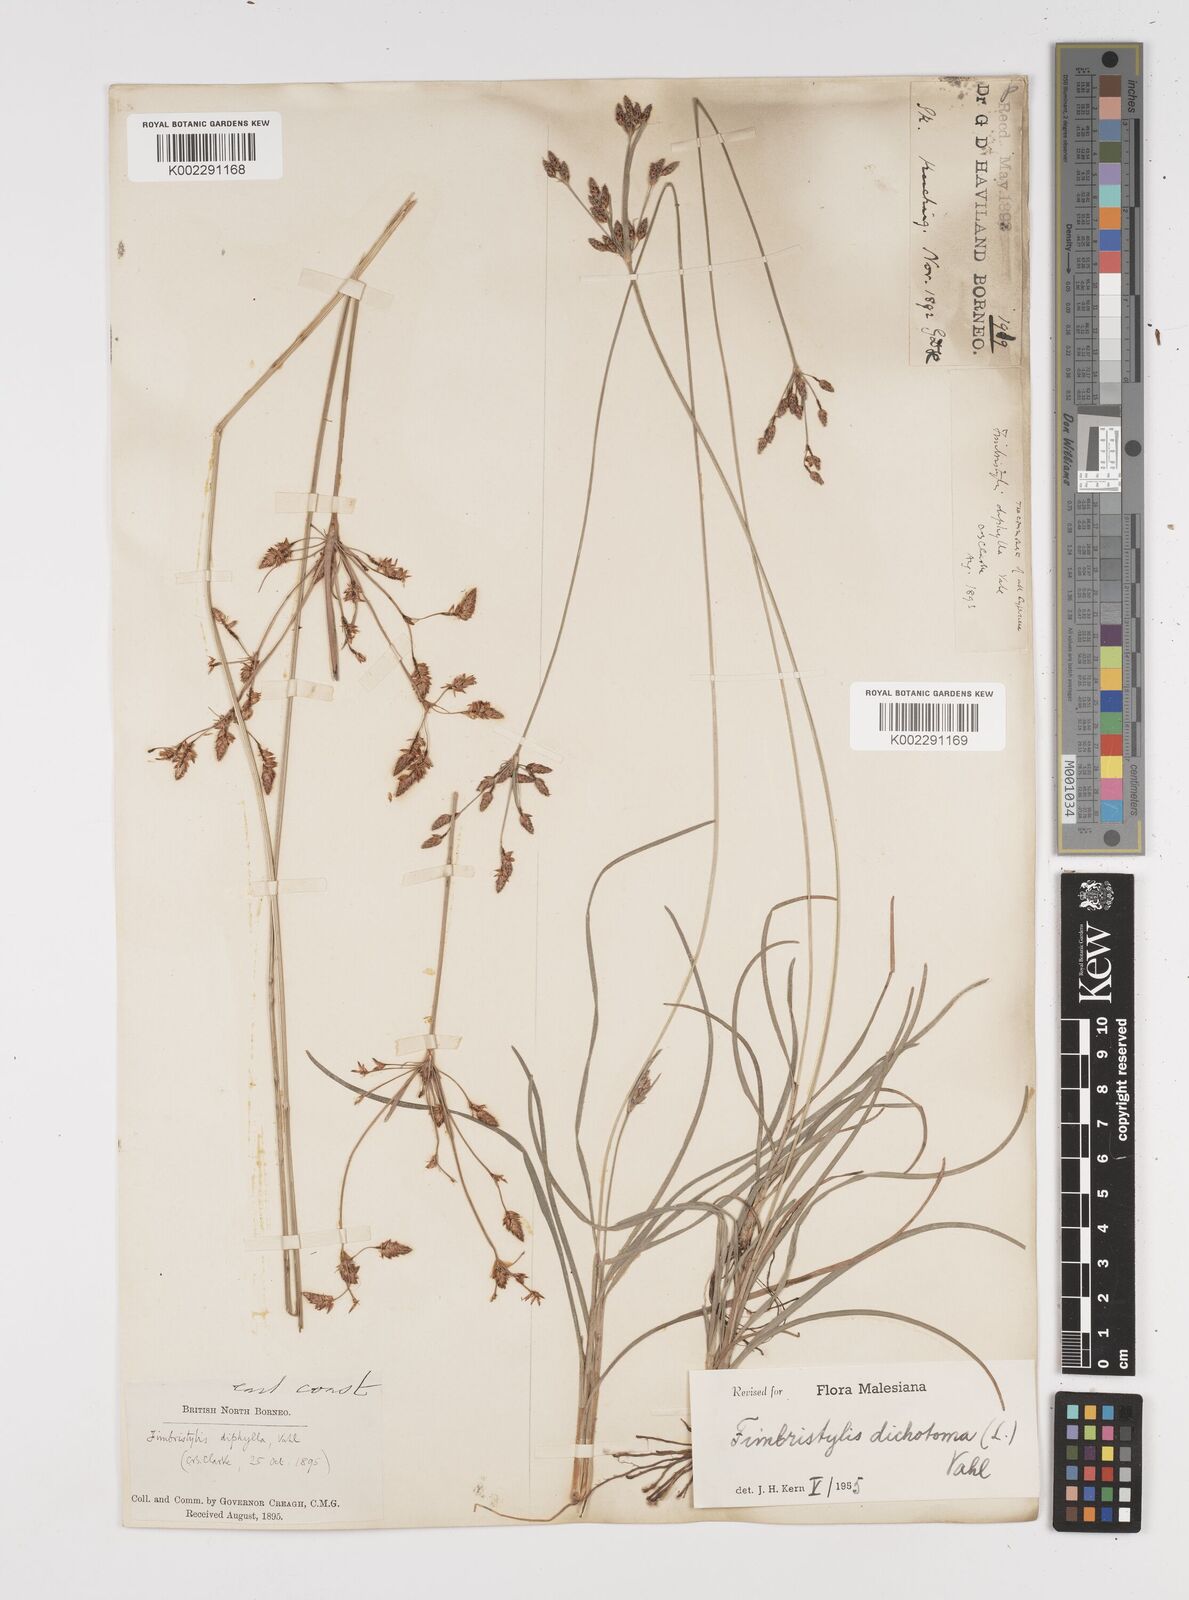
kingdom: Plantae
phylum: Tracheophyta
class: Liliopsida
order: Poales
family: Cyperaceae
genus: Fimbristylis
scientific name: Fimbristylis dichotoma
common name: Forked fimbry
